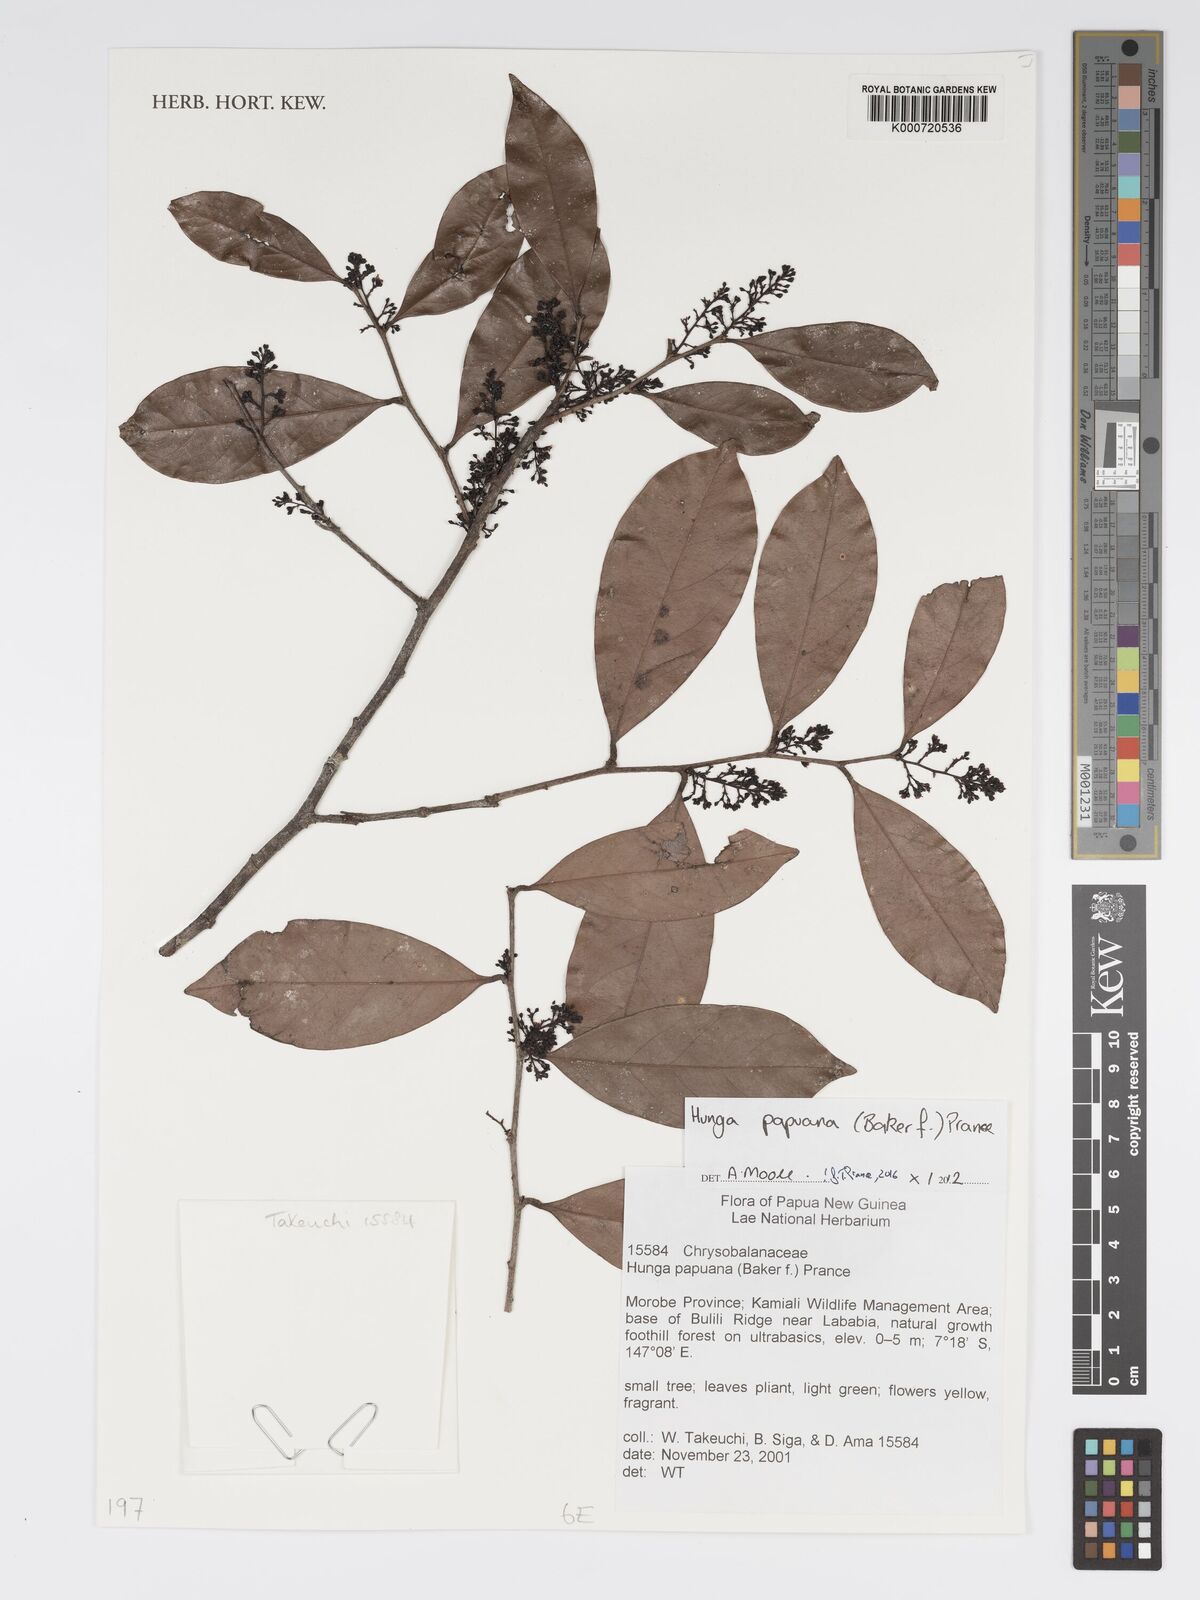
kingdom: Plantae
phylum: Tracheophyta
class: Magnoliopsida
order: Malpighiales
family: Chrysobalanaceae
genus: Hunga
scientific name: Hunga papuana
